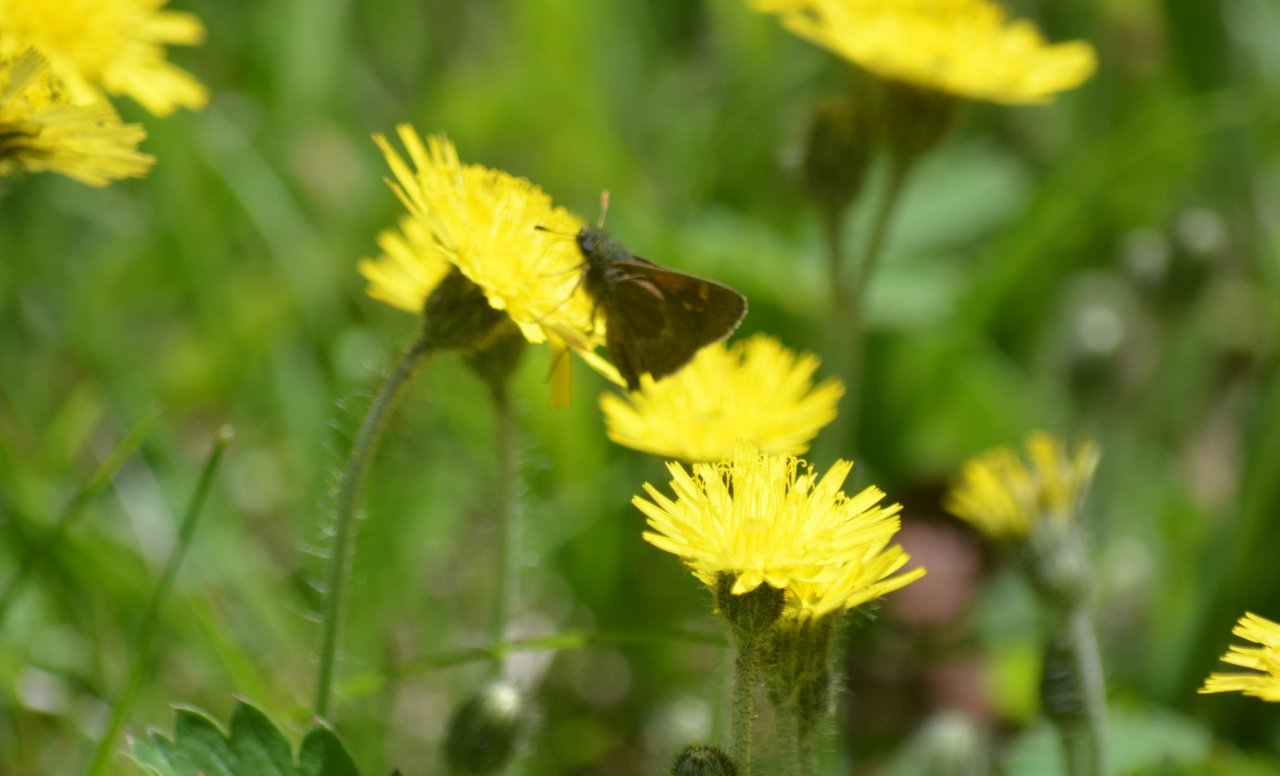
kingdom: Animalia
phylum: Arthropoda
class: Insecta
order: Lepidoptera
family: Hesperiidae
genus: Polites
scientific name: Polites themistocles
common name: Tawny-edged Skipper
